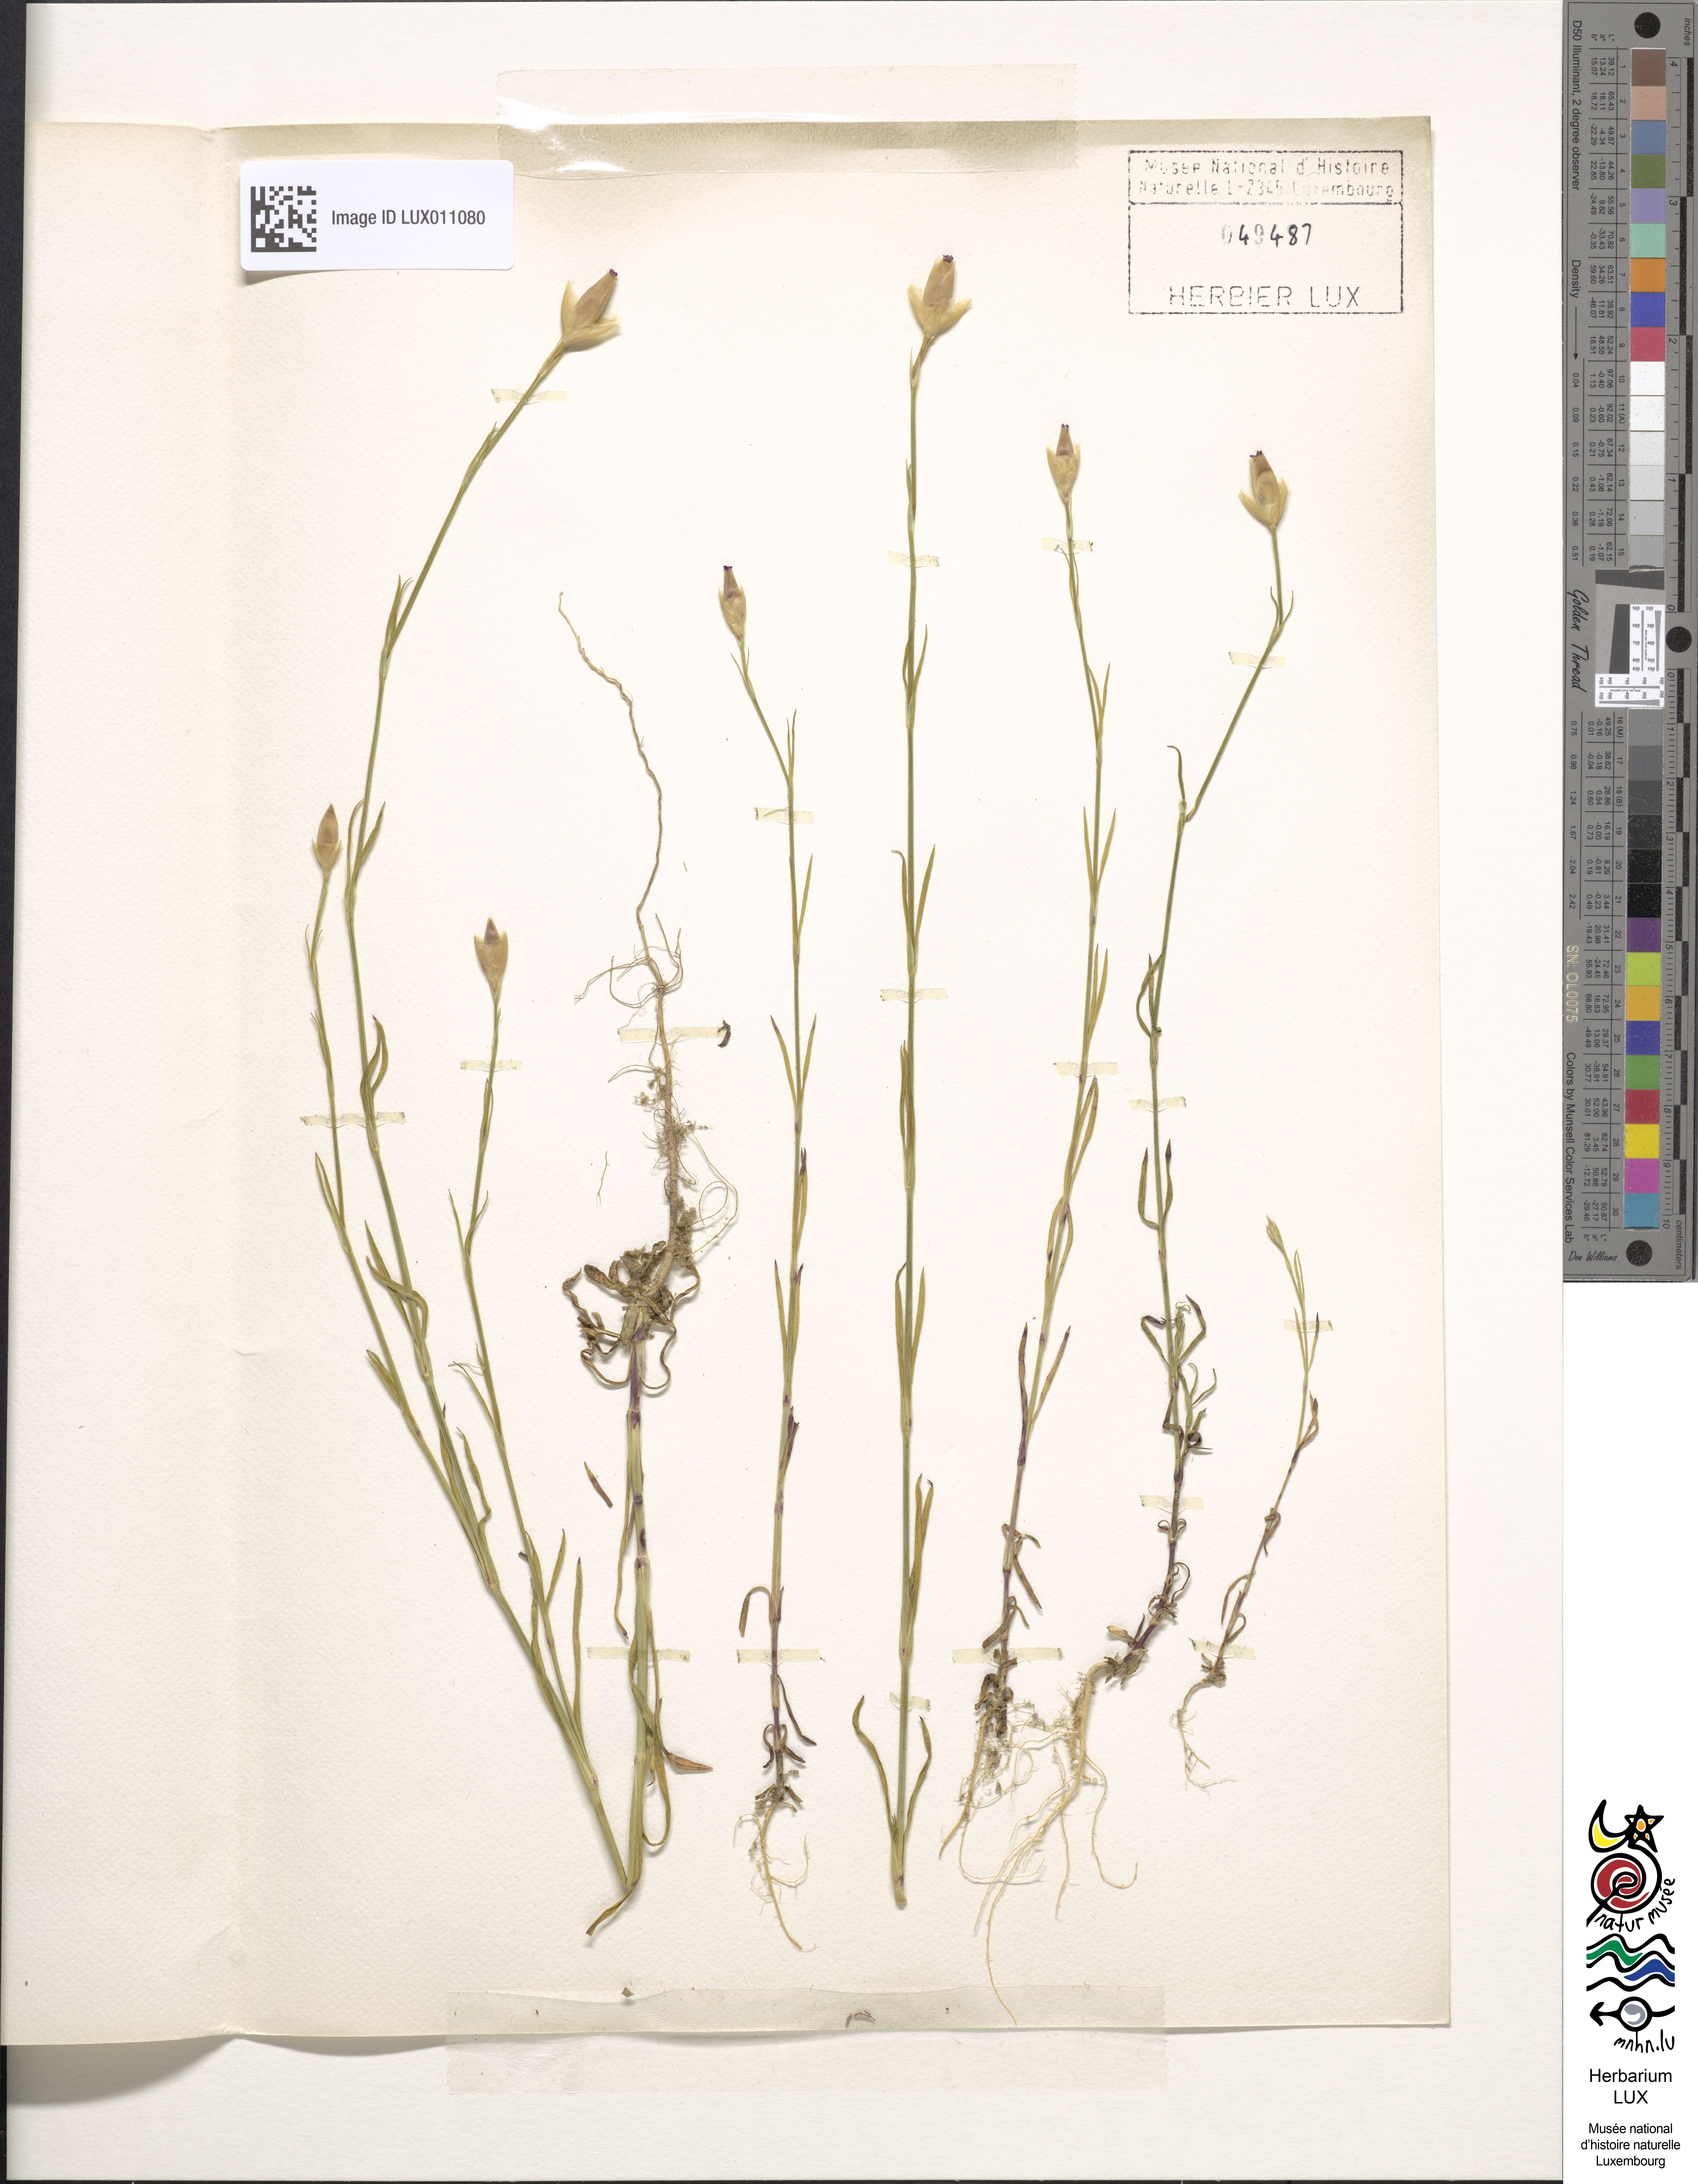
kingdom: Plantae
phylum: Tracheophyta
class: Magnoliopsida
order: Caryophyllales
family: Caryophyllaceae
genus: Petrorhagia
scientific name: Petrorhagia prolifera
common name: Proliferous pink
